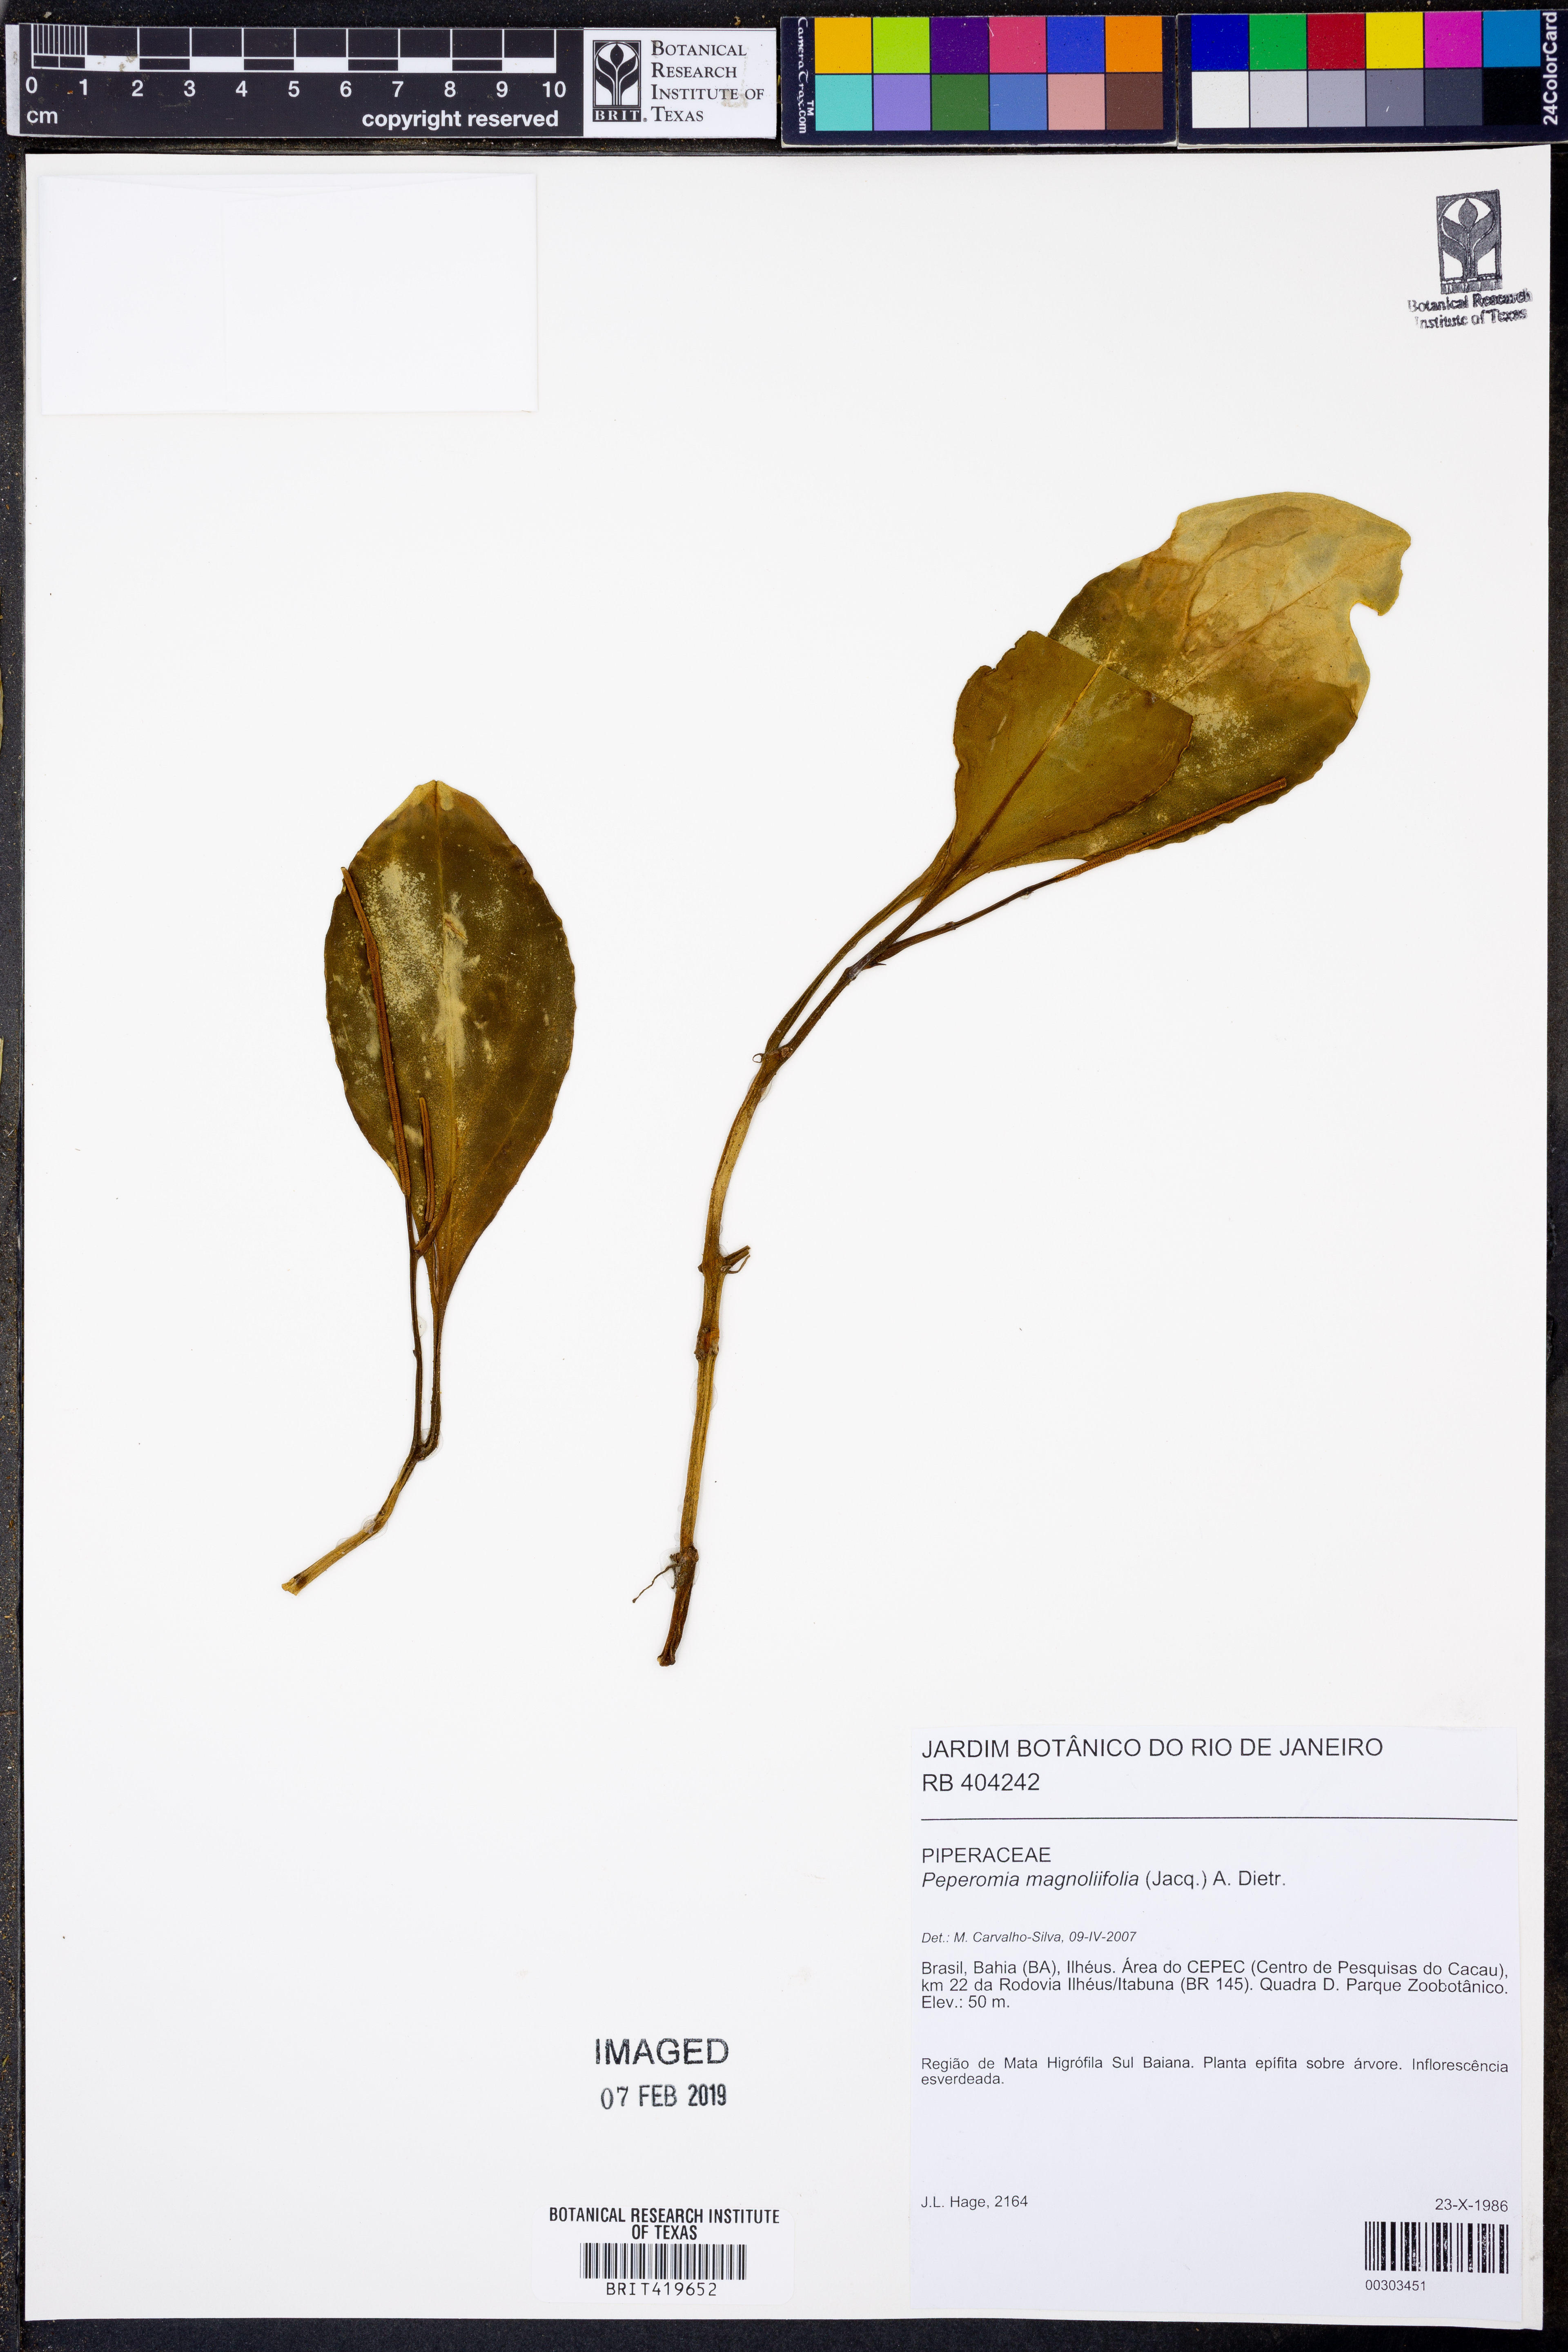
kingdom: Plantae
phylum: Tracheophyta
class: Magnoliopsida
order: Piperales
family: Piperaceae
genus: Peperomia
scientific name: Peperomia magnoliifolia
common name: Spoonleaf peperomia
